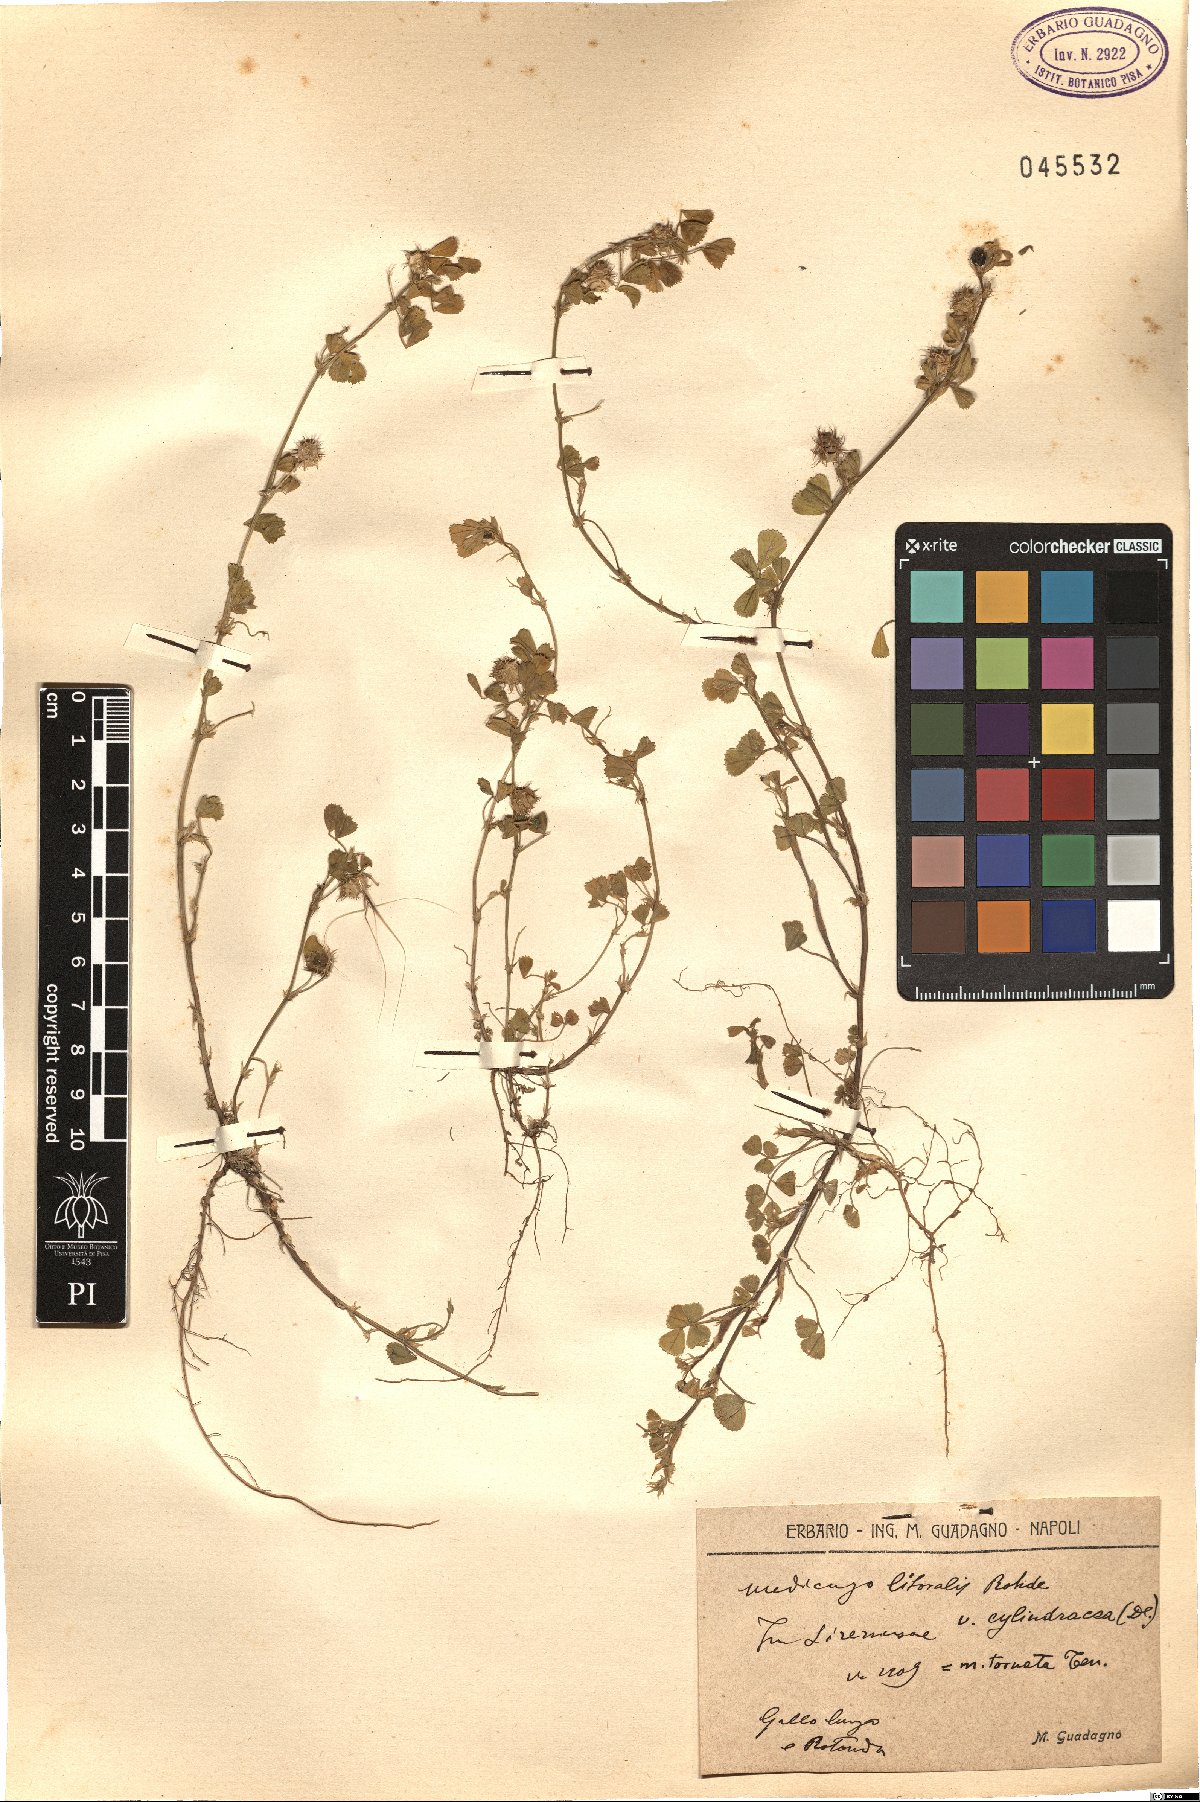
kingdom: Plantae
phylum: Tracheophyta
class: Magnoliopsida
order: Fabales
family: Fabaceae
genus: Medicago
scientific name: Medicago littoralis
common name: Shore medick
